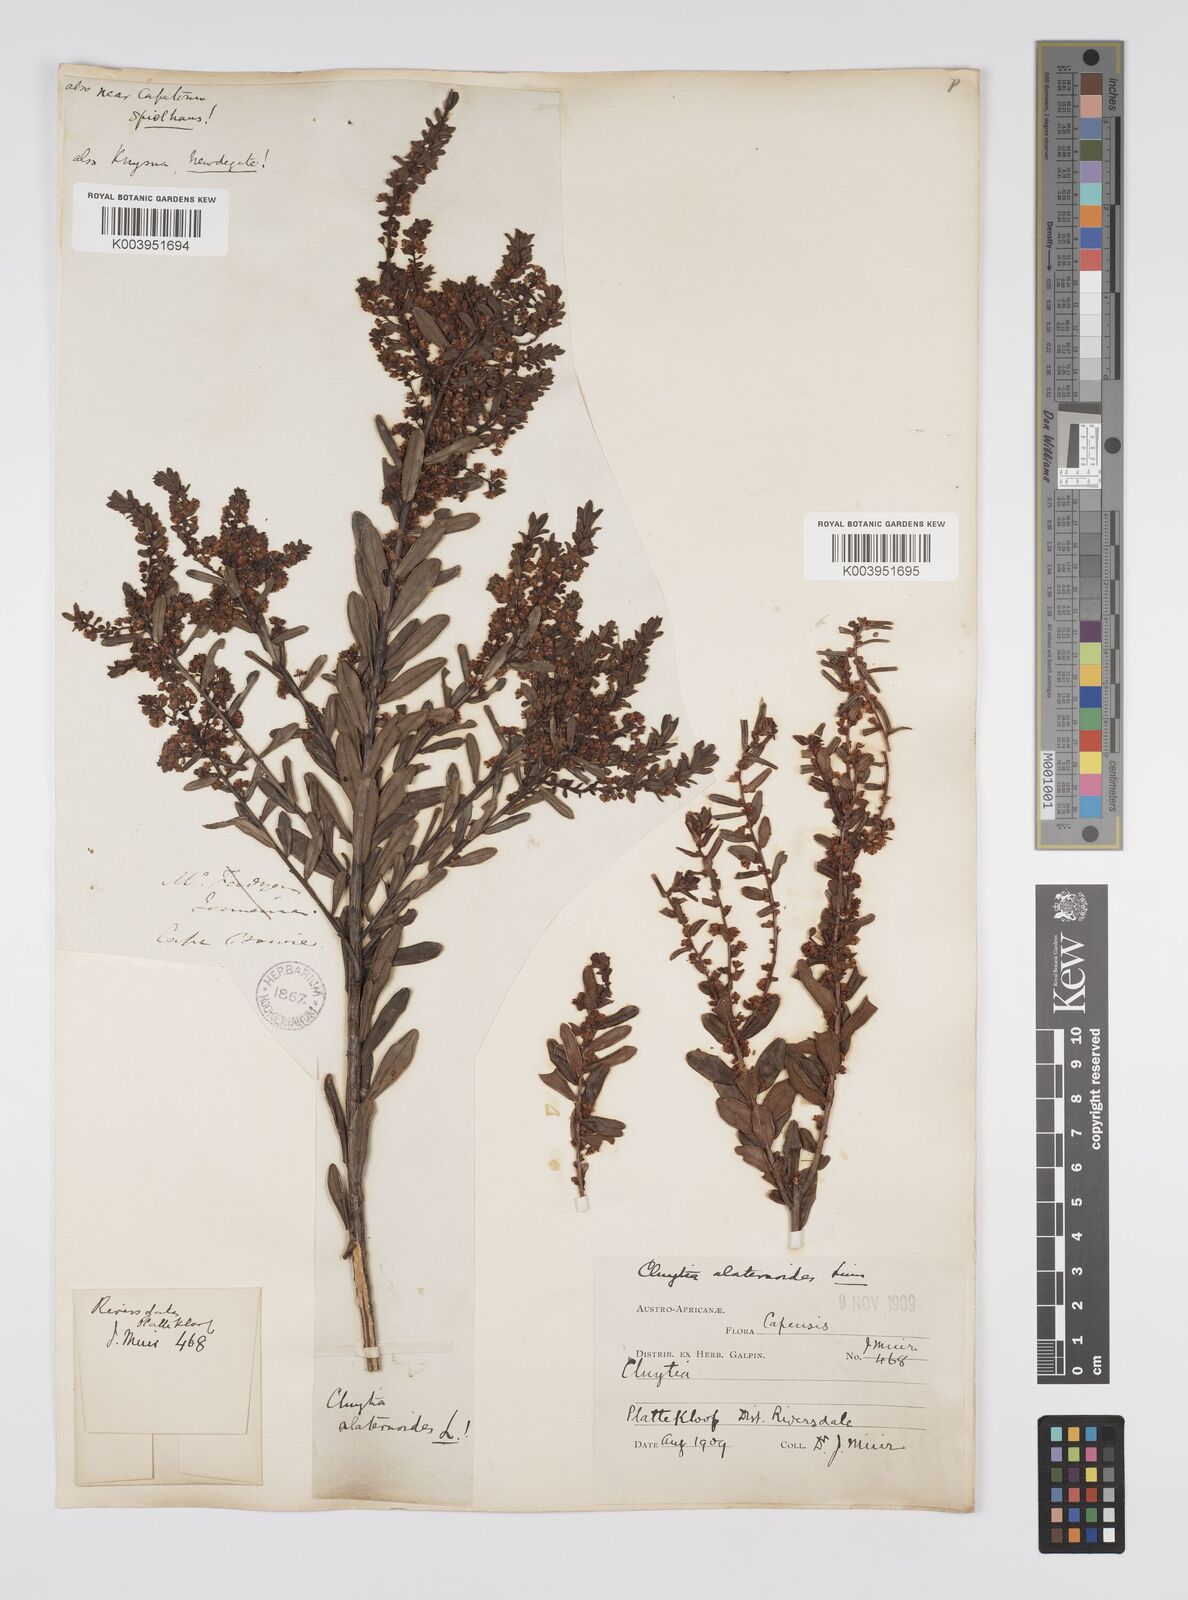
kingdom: Plantae
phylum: Tracheophyta
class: Magnoliopsida
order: Malpighiales
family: Peraceae
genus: Clutia
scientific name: Clutia alaternoides
